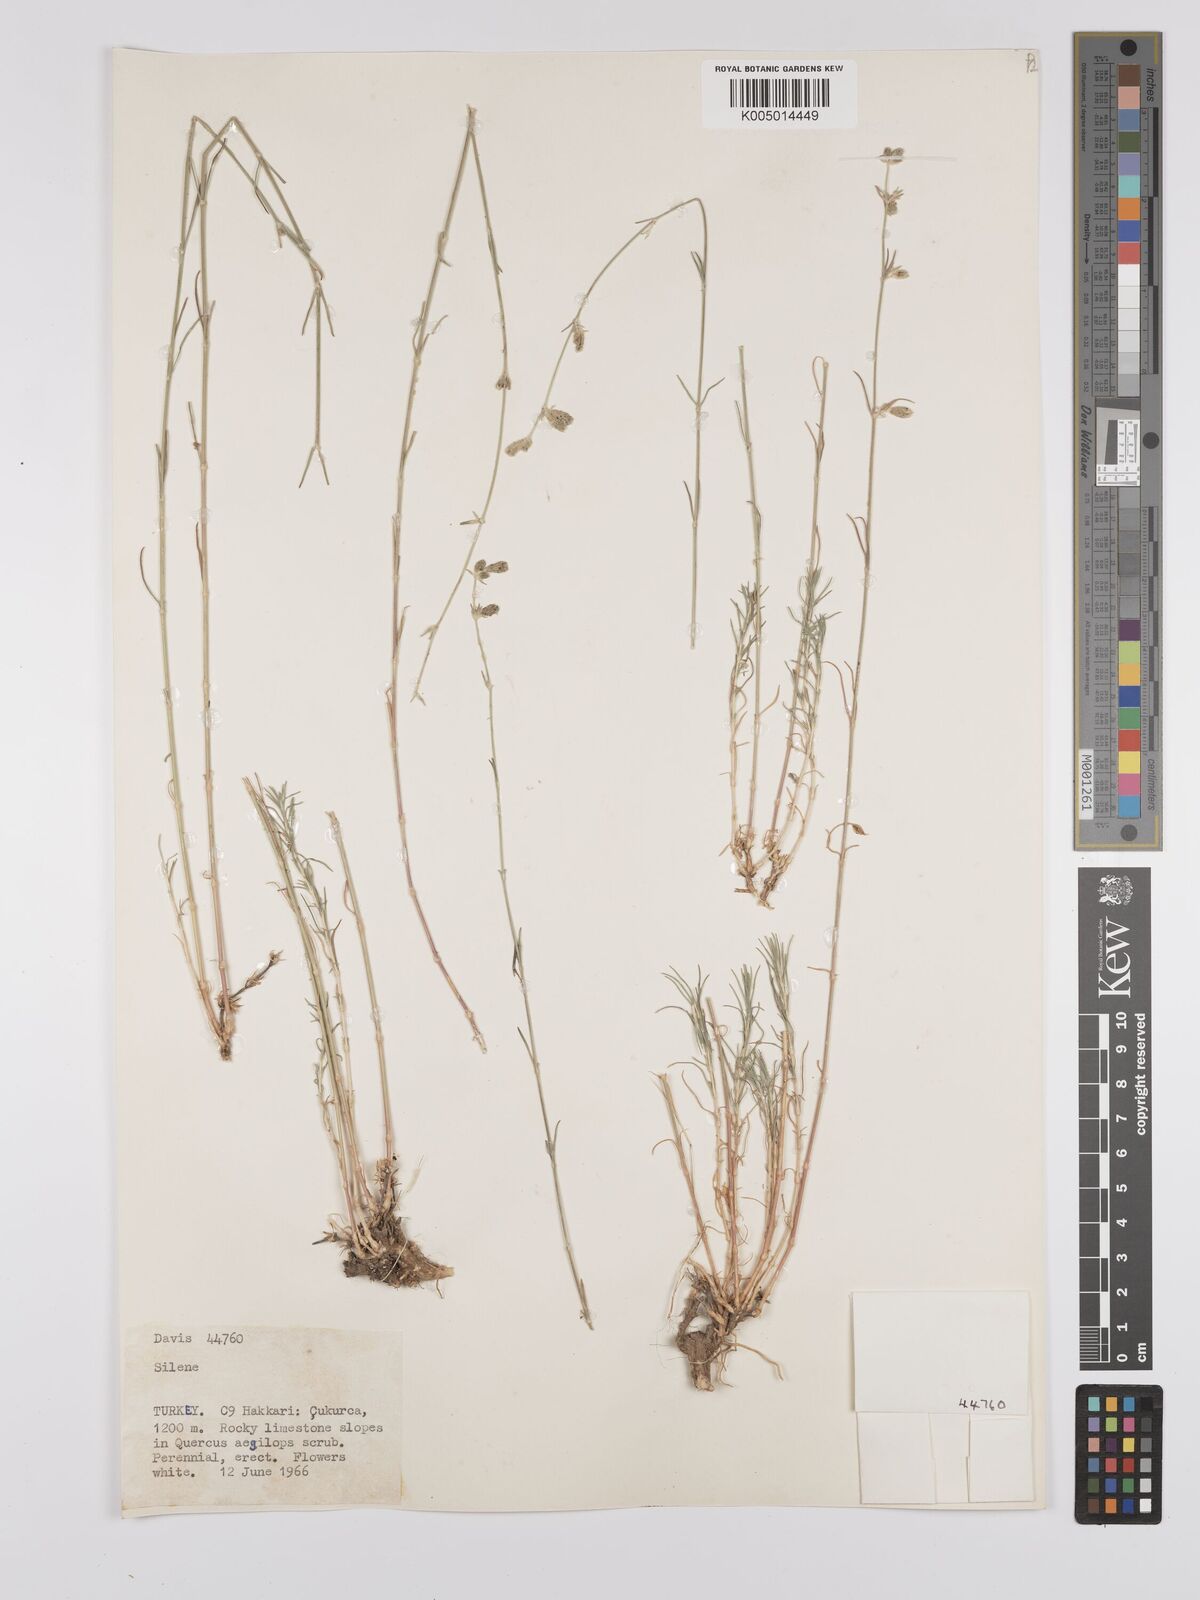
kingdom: Plantae
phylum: Tracheophyta
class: Magnoliopsida
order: Caryophyllales
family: Caryophyllaceae
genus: Silene
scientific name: Silene
